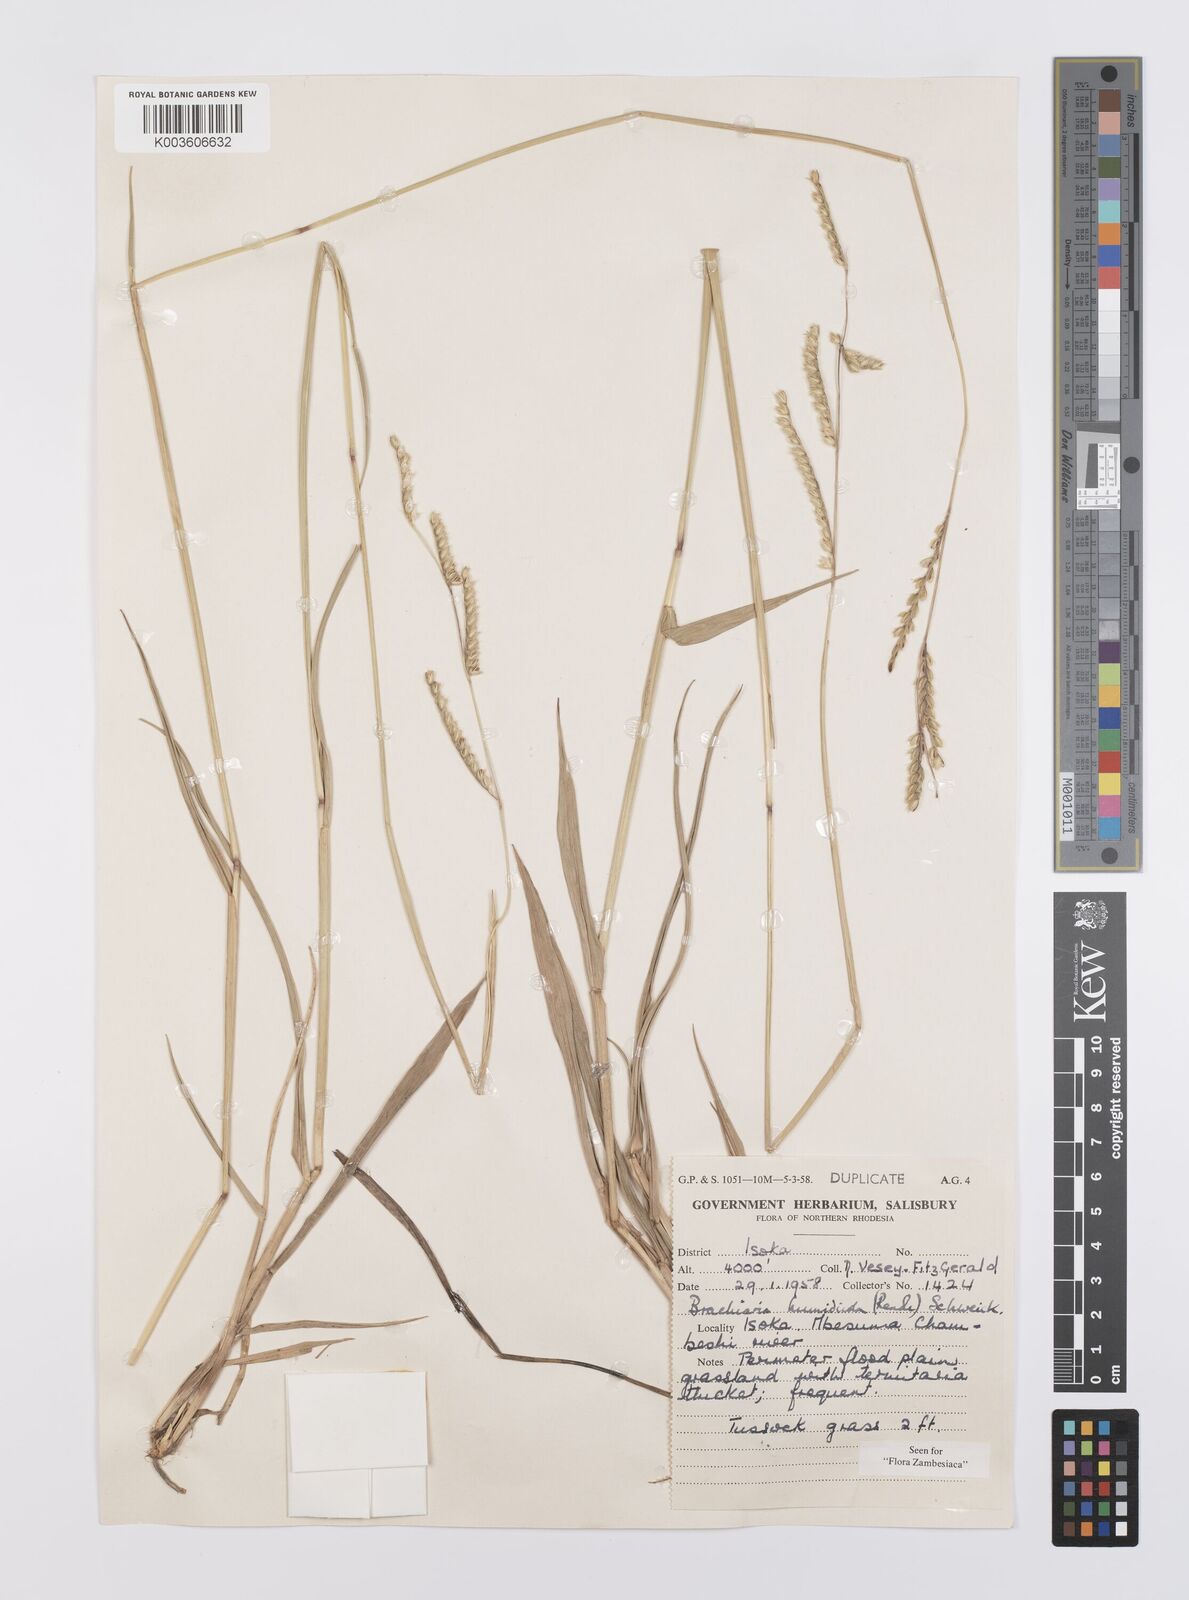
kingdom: Plantae
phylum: Tracheophyta
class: Liliopsida
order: Poales
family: Poaceae
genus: Urochloa
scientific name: Urochloa dictyoneura
